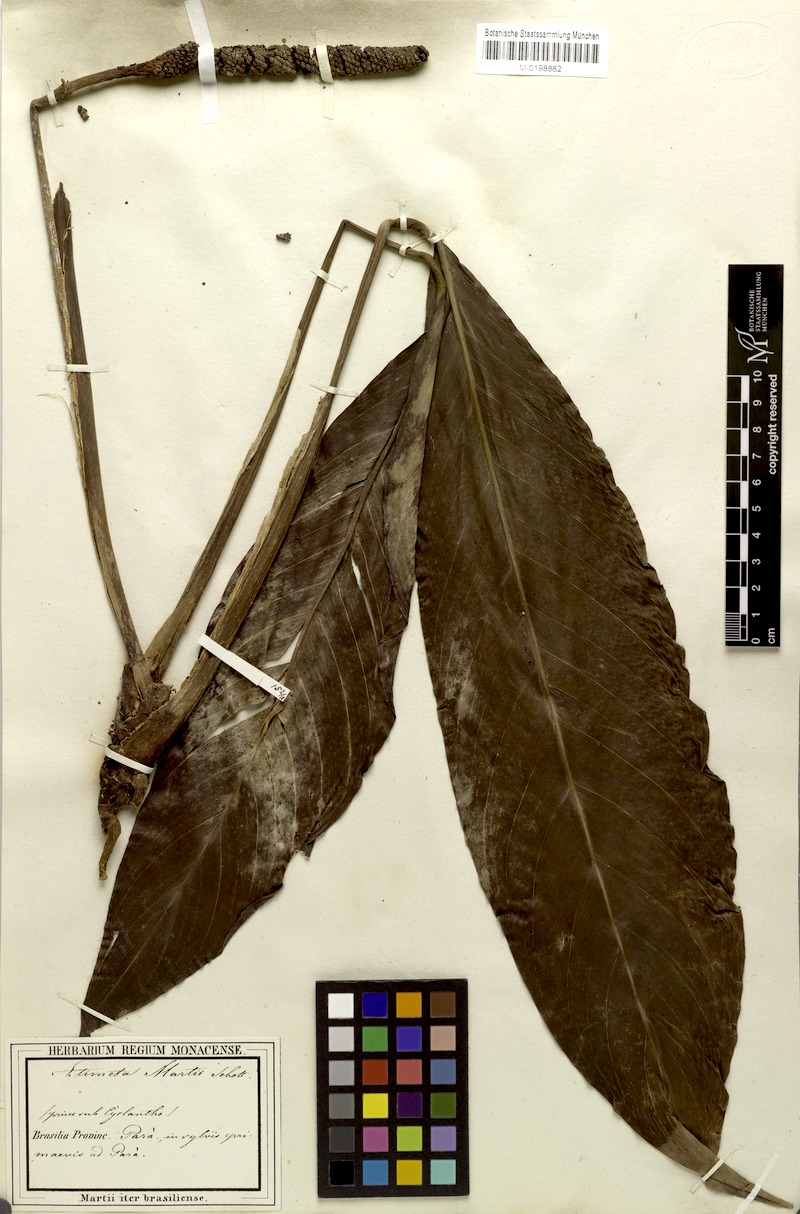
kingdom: Plantae
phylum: Tracheophyta
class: Liliopsida
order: Alismatales
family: Araceae
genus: Rhodospatha
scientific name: Rhodospatha oblongata
